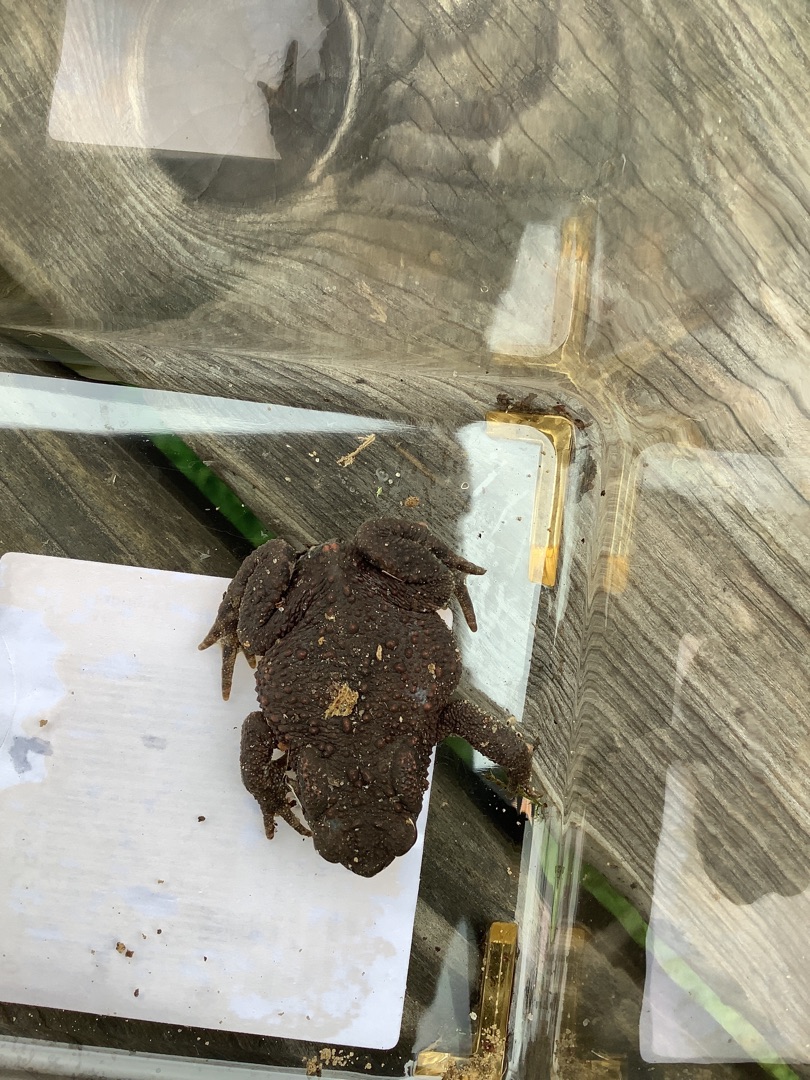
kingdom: Animalia
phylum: Chordata
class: Amphibia
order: Anura
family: Bufonidae
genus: Bufo
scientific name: Bufo bufo
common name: Skrubtudse
